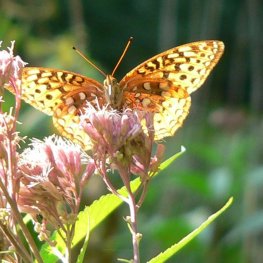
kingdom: Animalia
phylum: Arthropoda
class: Insecta
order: Lepidoptera
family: Nymphalidae
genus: Speyeria
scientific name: Speyeria cybele
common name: Great Spangled Fritillary
